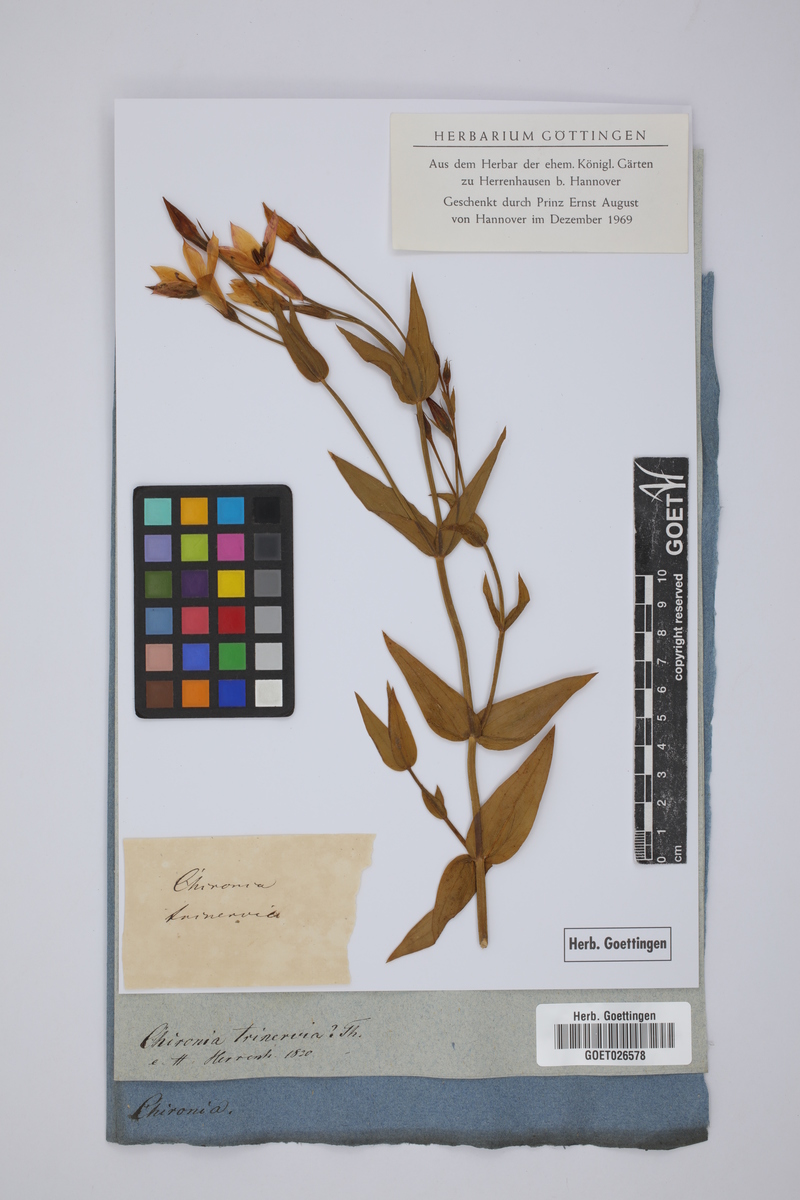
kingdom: Plantae
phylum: Tracheophyta
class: Magnoliopsida
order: Gentianales
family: Gentianaceae
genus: Exacum
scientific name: Exacum trinervium
